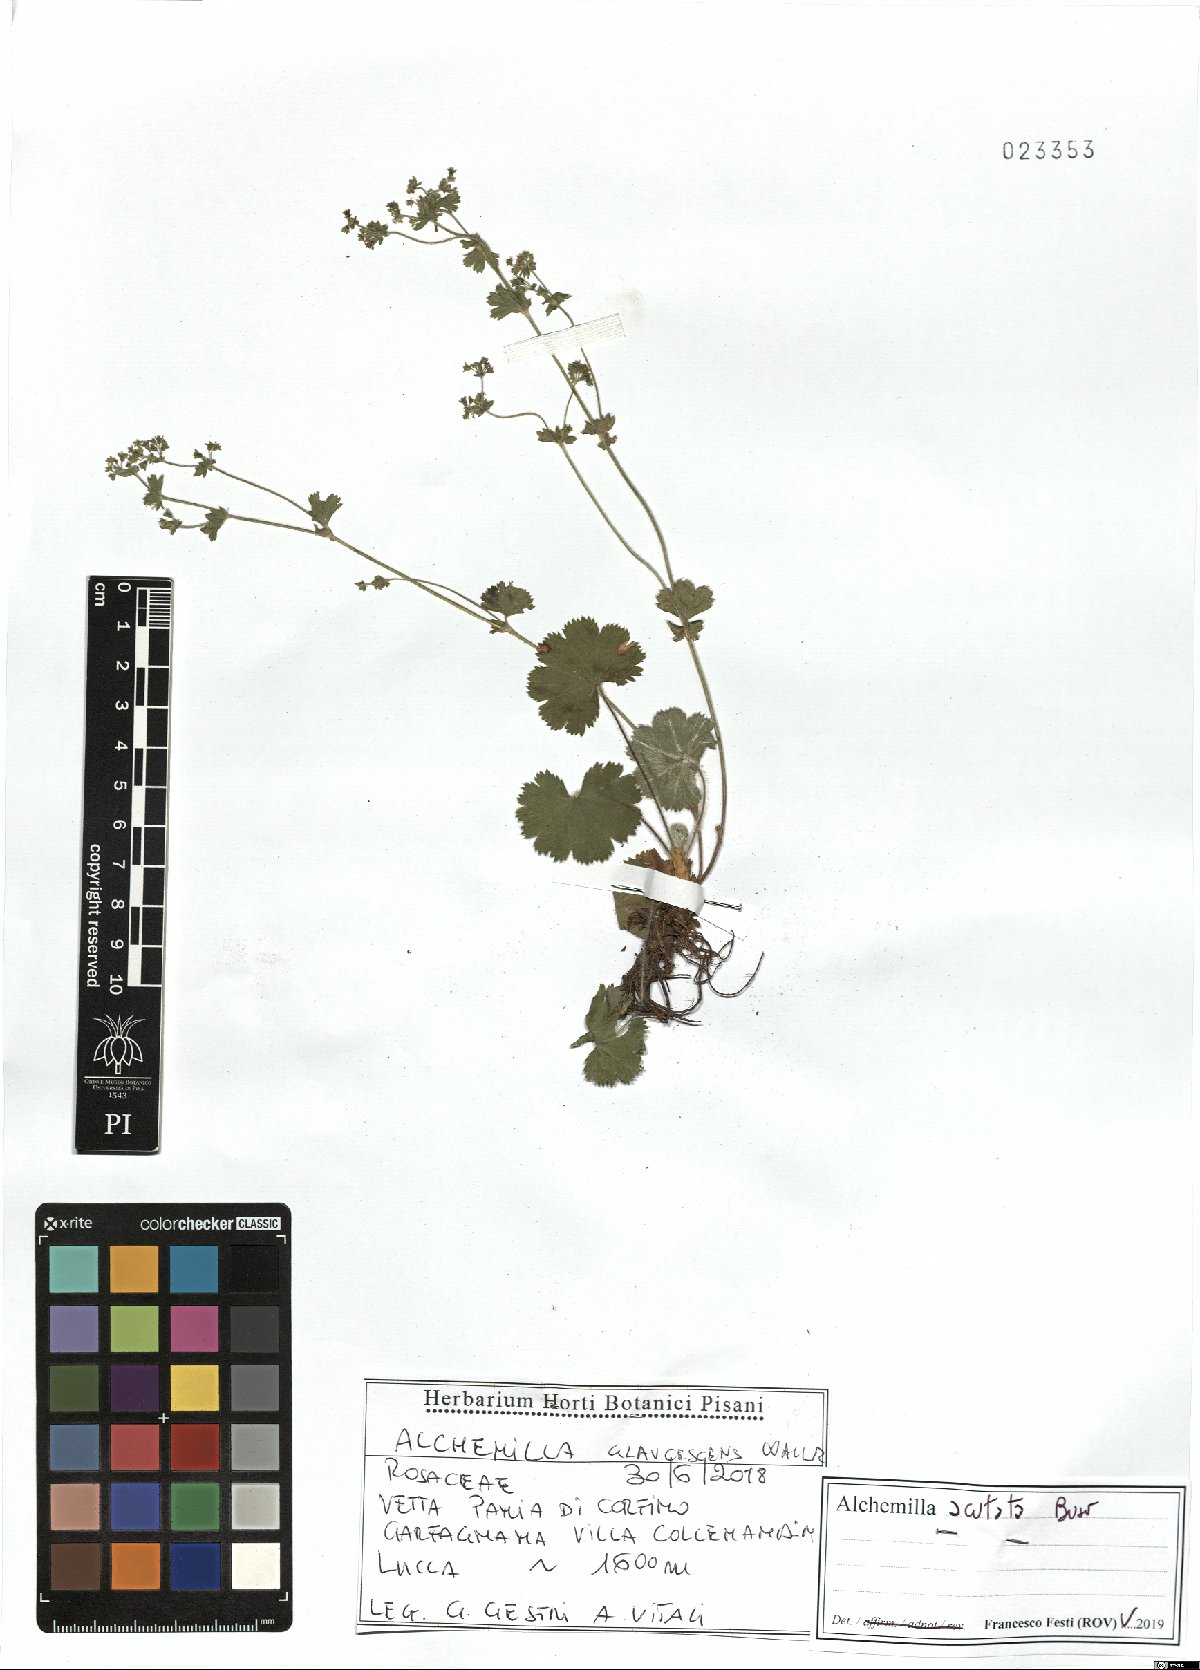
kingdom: Plantae
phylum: Tracheophyta
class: Magnoliopsida
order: Rosales
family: Rosaceae
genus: Alchemilla
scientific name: Alchemilla acutata
